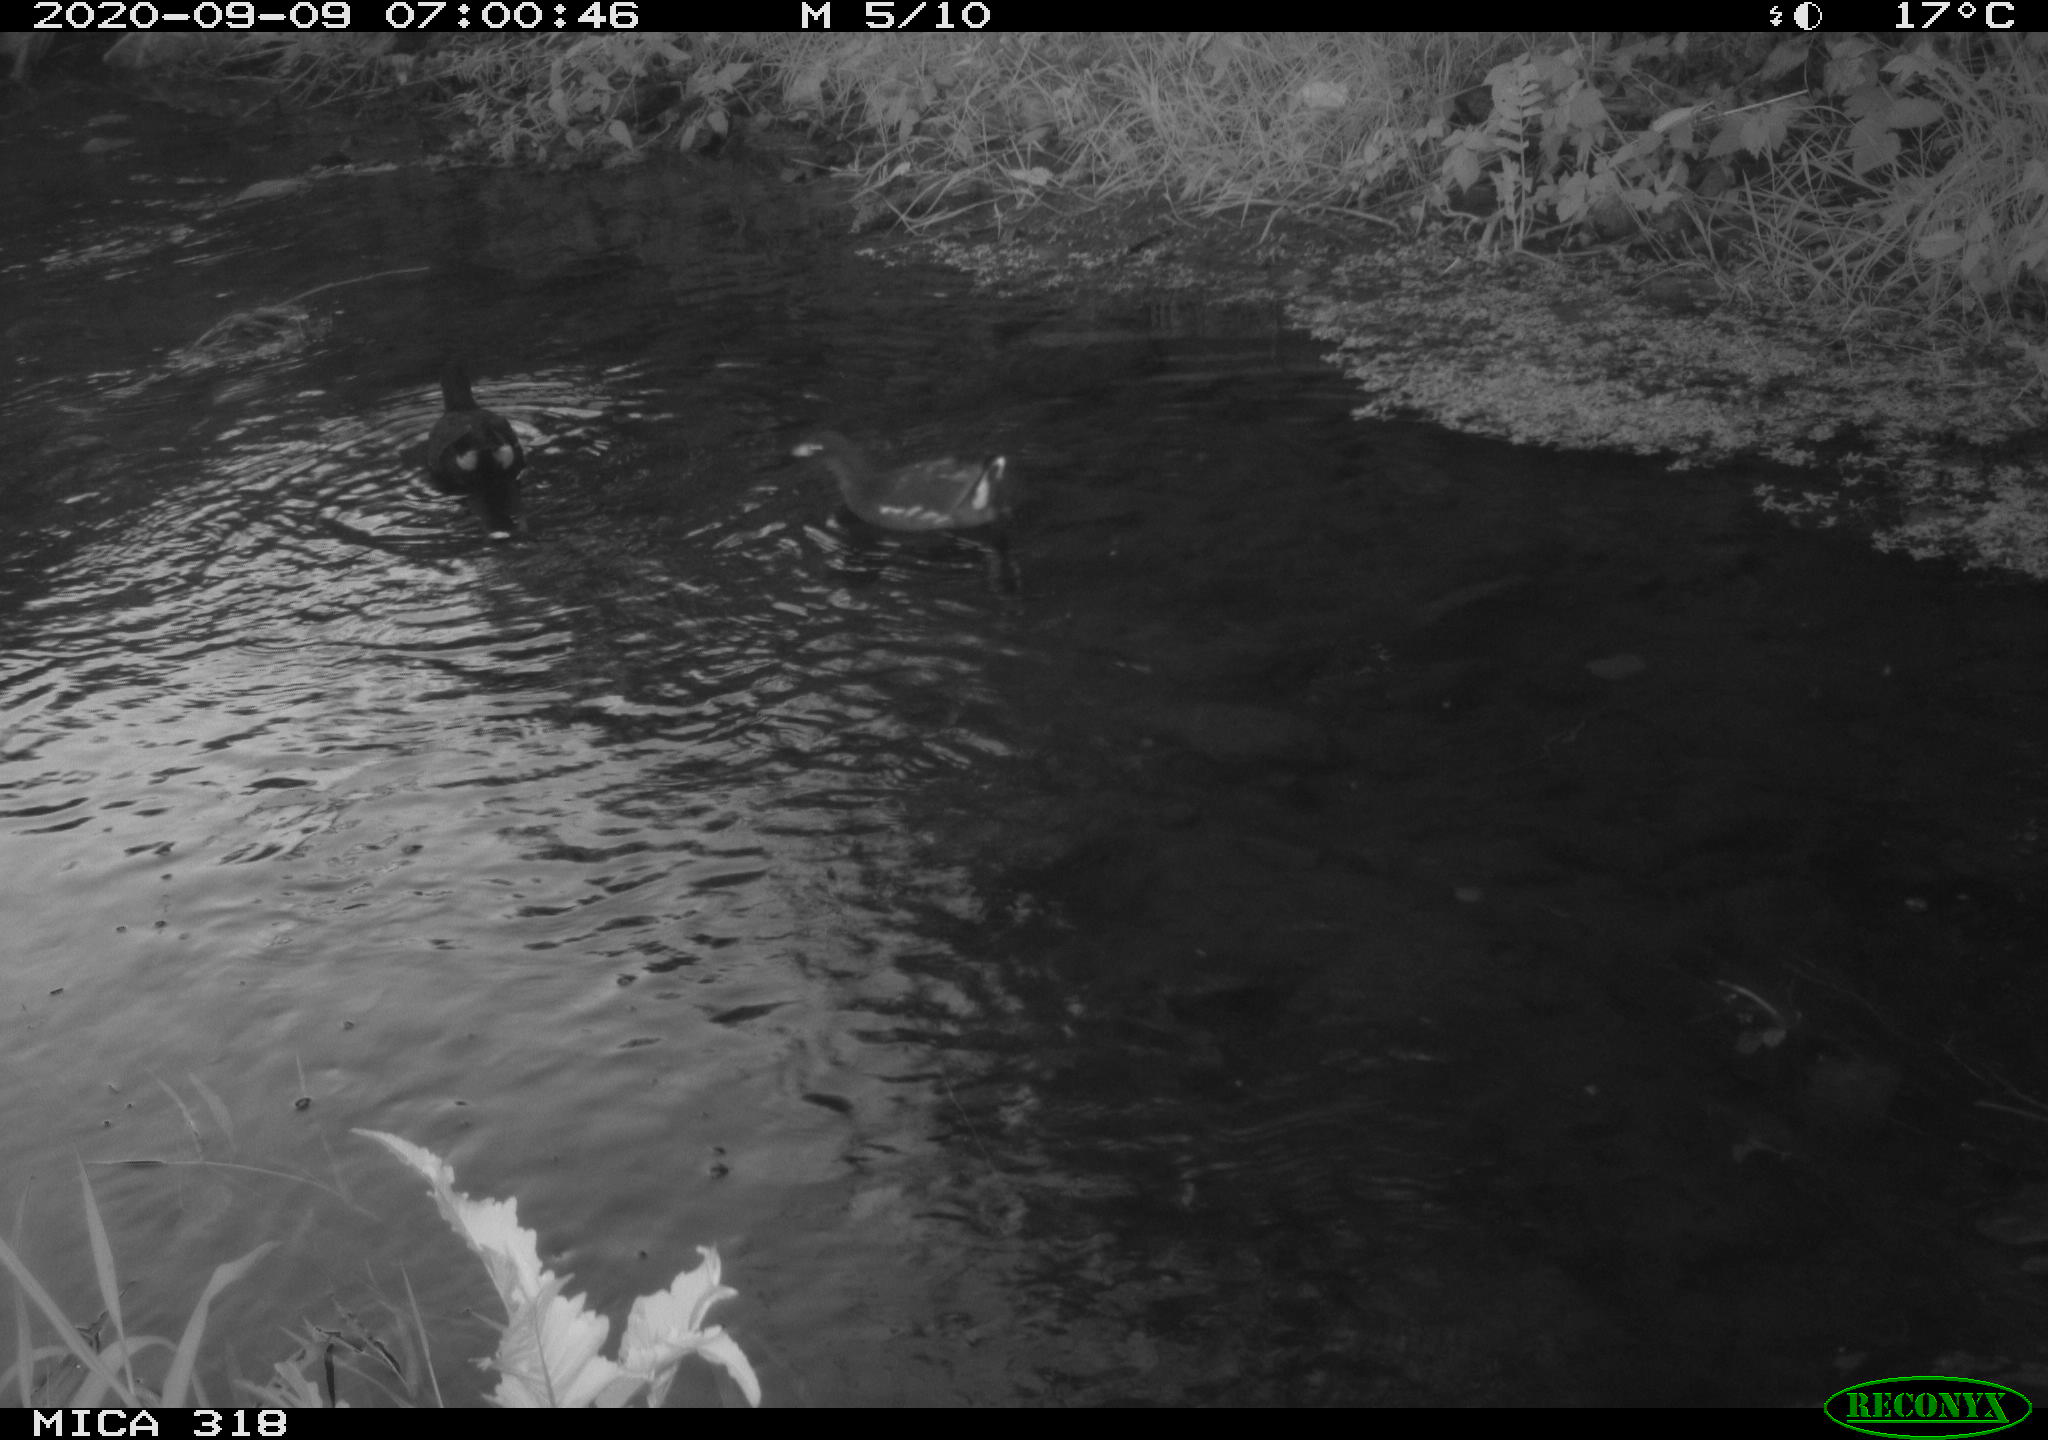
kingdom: Animalia
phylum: Chordata
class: Aves
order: Gruiformes
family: Rallidae
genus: Gallinula
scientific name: Gallinula chloropus
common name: Common moorhen
